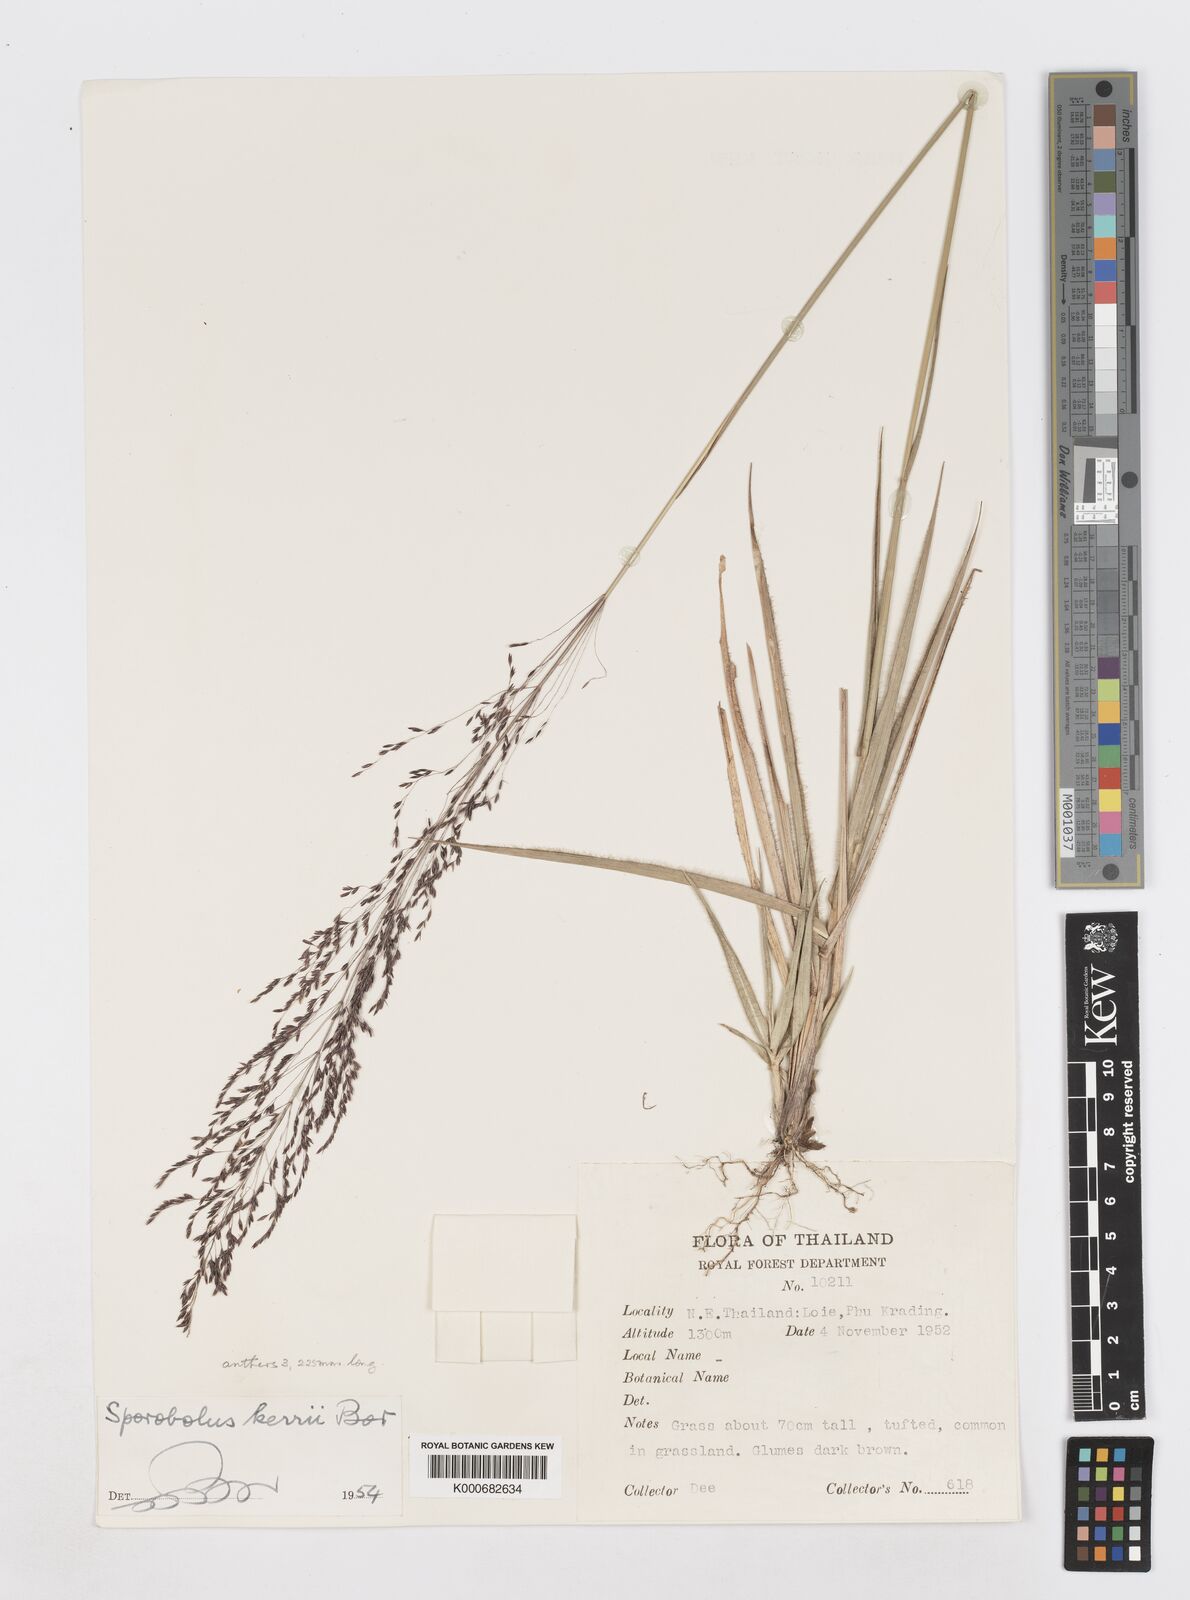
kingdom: Plantae
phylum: Tracheophyta
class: Liliopsida
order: Poales
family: Poaceae
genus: Sporobolus
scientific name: Sporobolus kerrii
